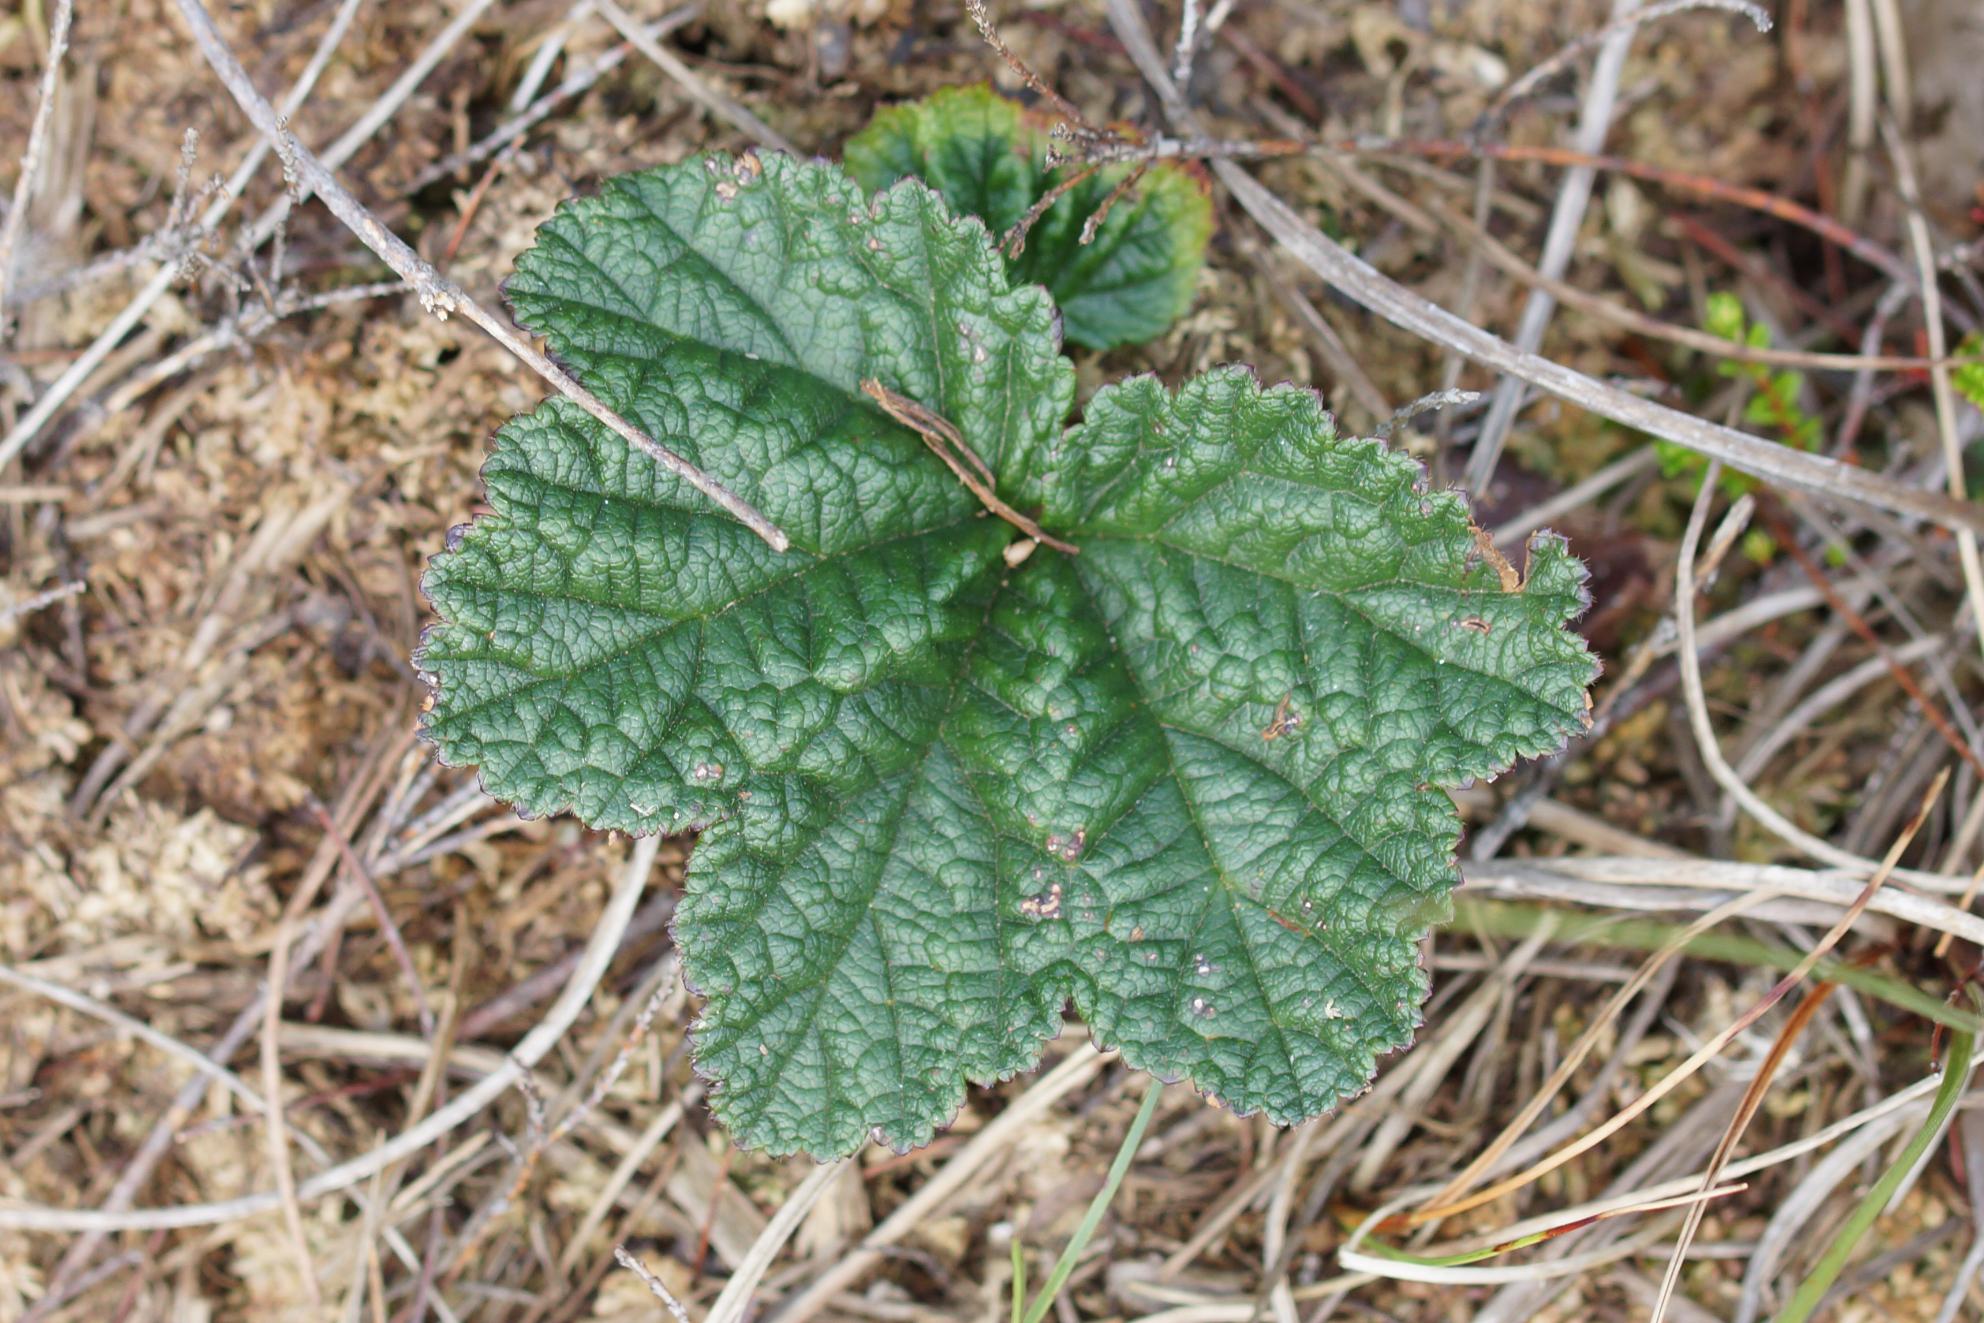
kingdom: Plantae
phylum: Tracheophyta
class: Magnoliopsida
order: Rosales
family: Rosaceae
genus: Rubus
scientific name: Rubus chamaemorus
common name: Multebær
